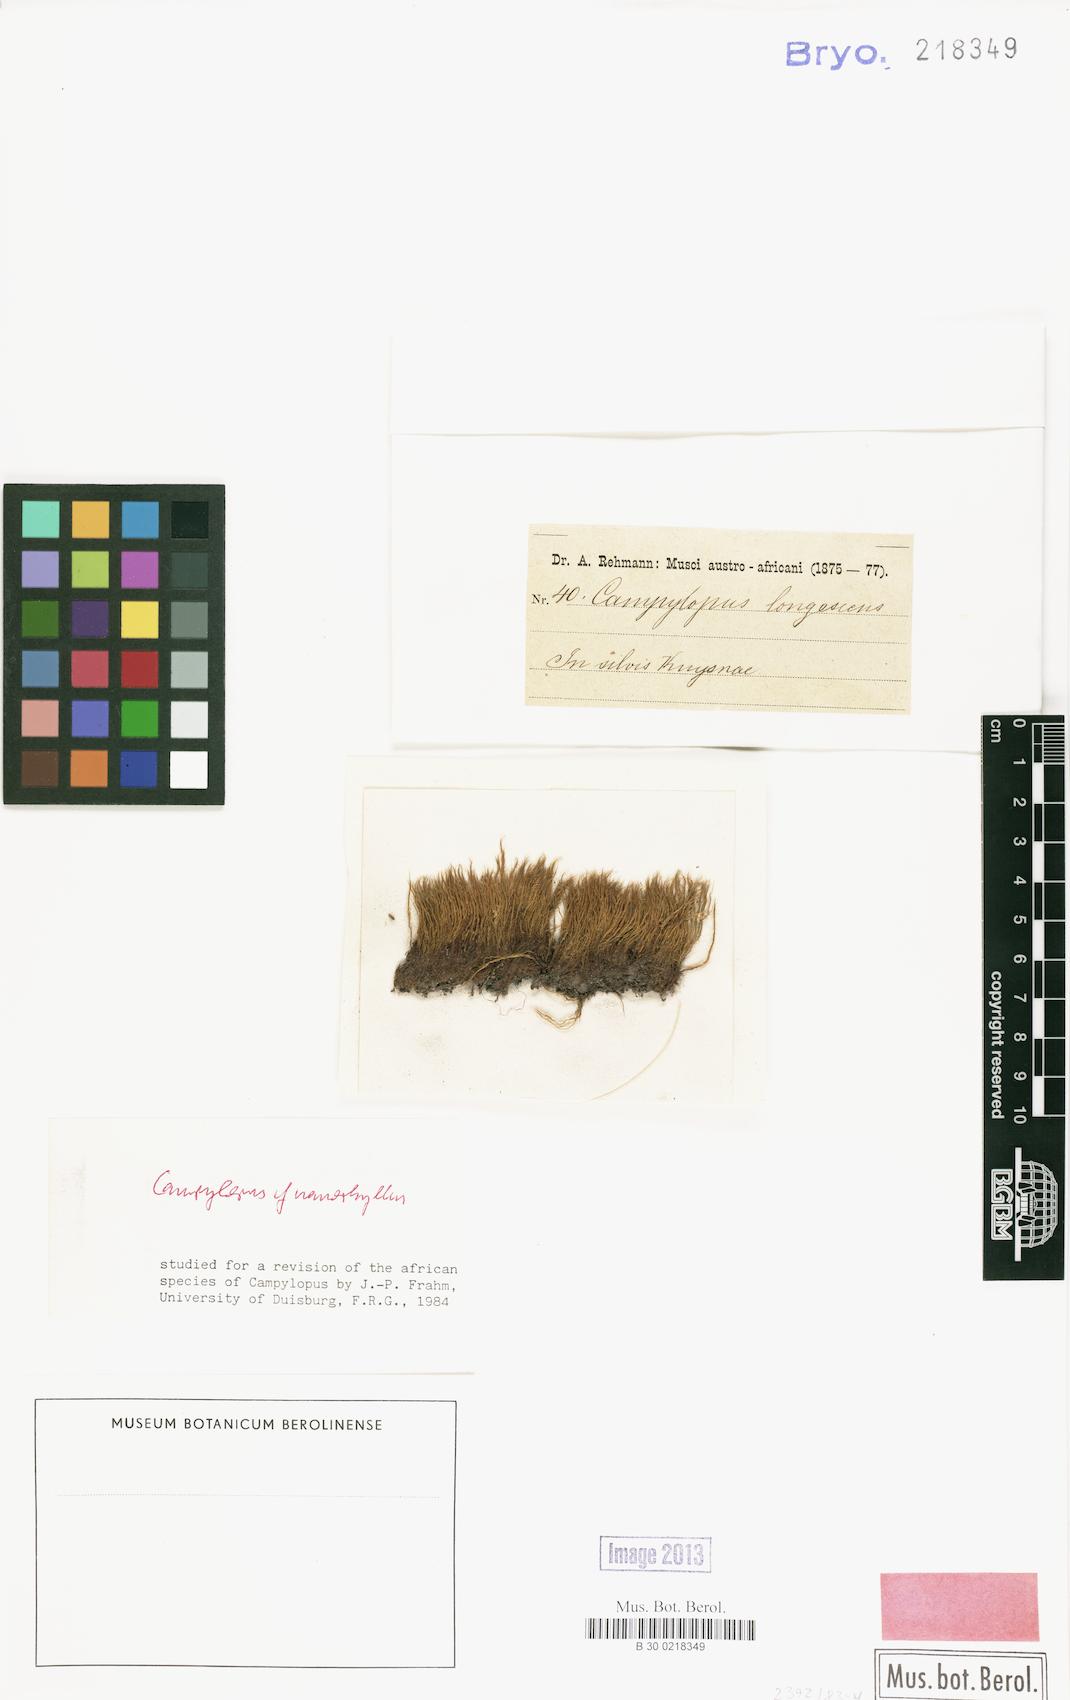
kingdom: Plantae
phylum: Bryophyta
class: Bryopsida
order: Dicranales
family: Leucobryaceae
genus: Campylopus
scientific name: Campylopus nanophyllus
